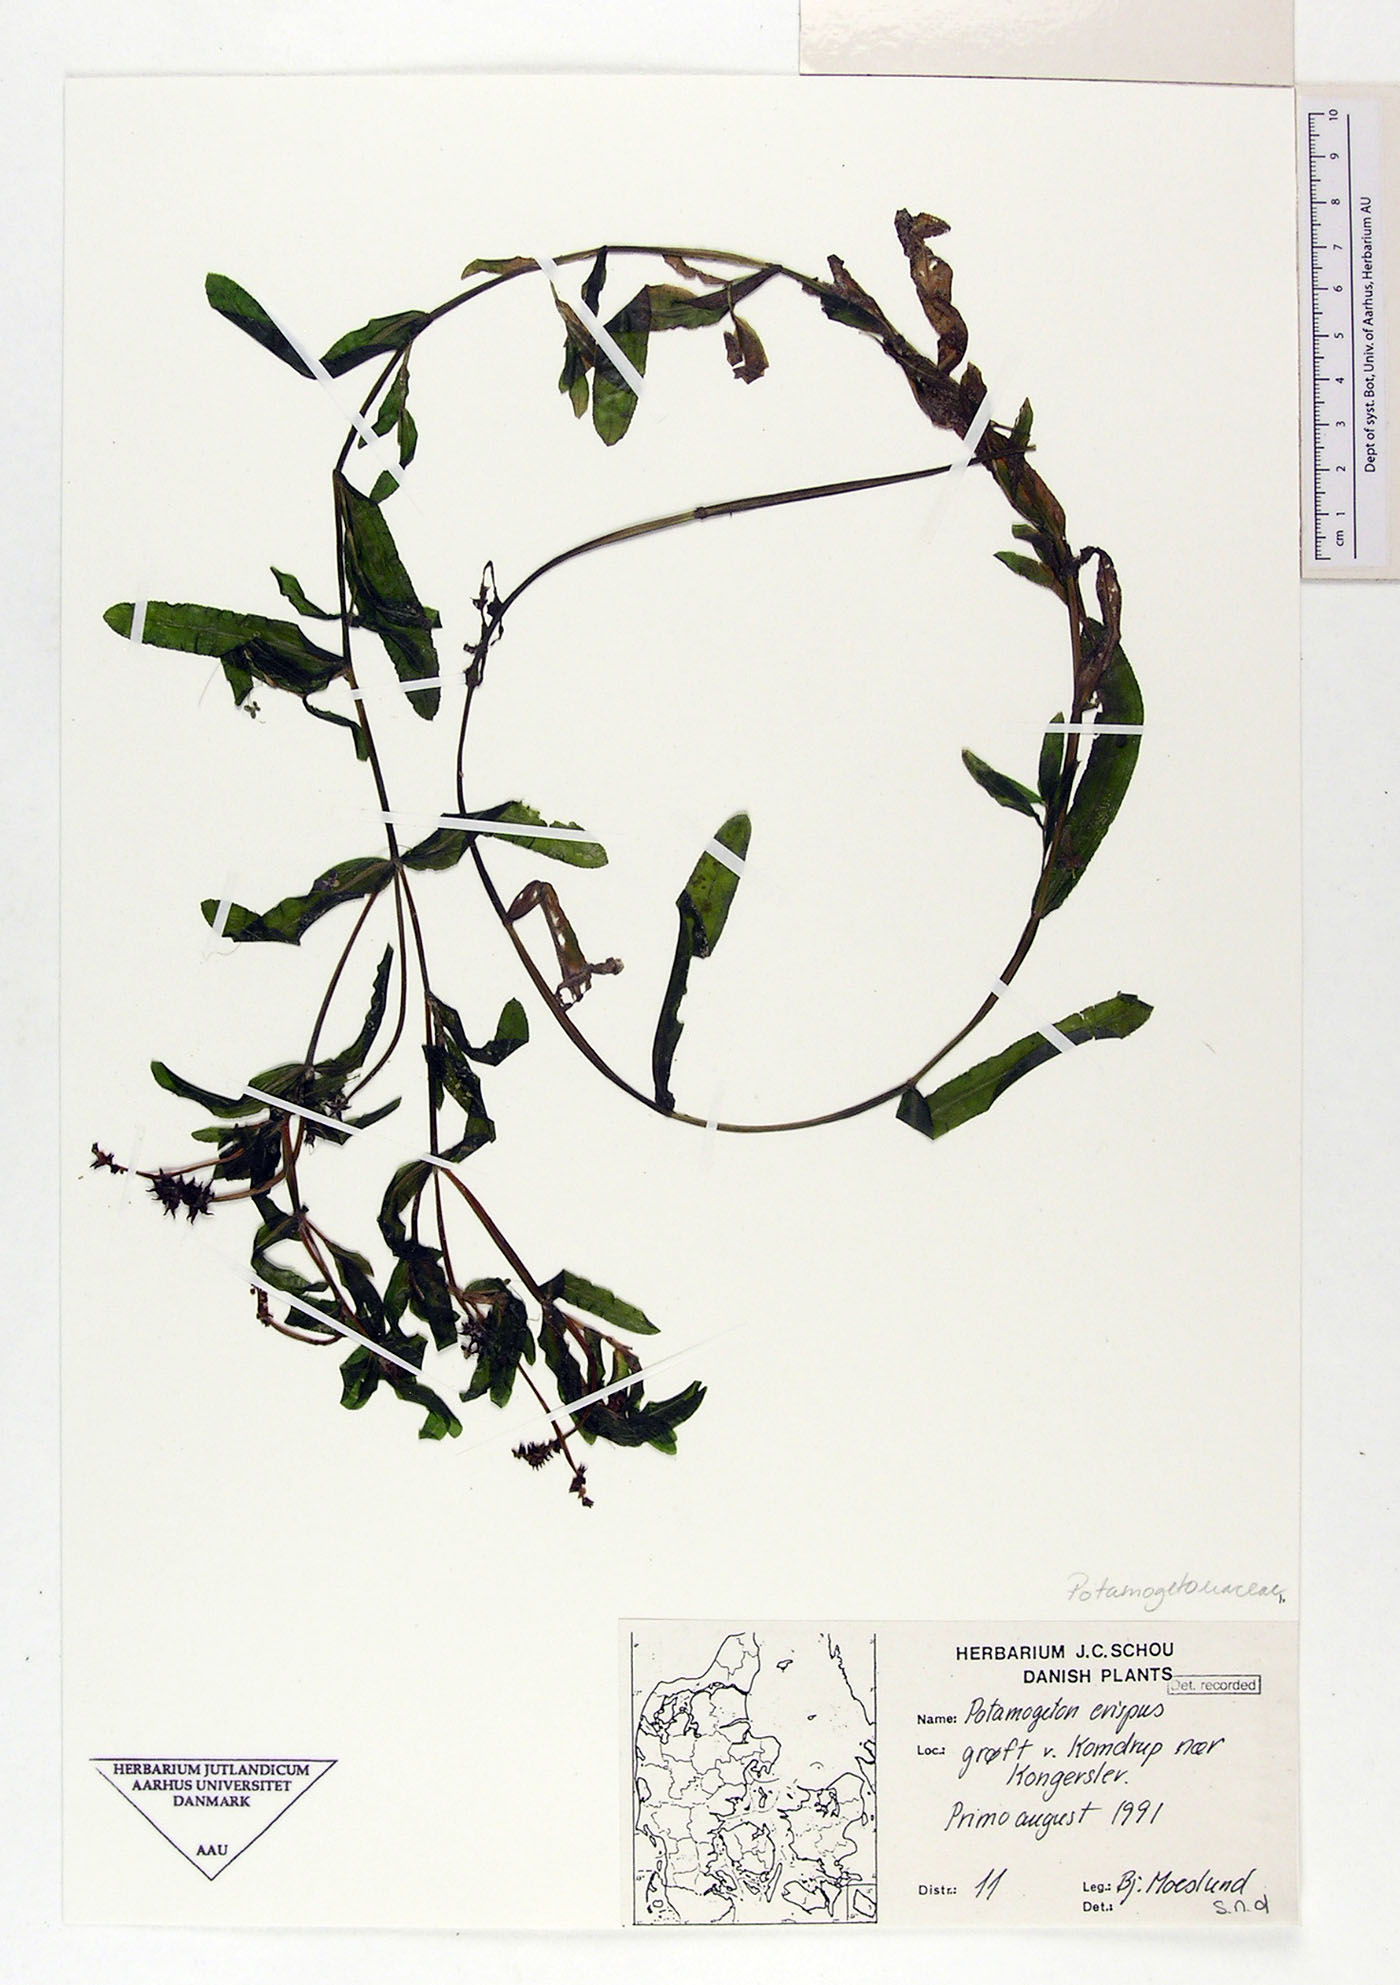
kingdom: Plantae
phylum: Tracheophyta
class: Liliopsida
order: Alismatales
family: Potamogetonaceae
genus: Potamogeton
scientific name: Potamogeton crispus
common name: Curled pondweed
